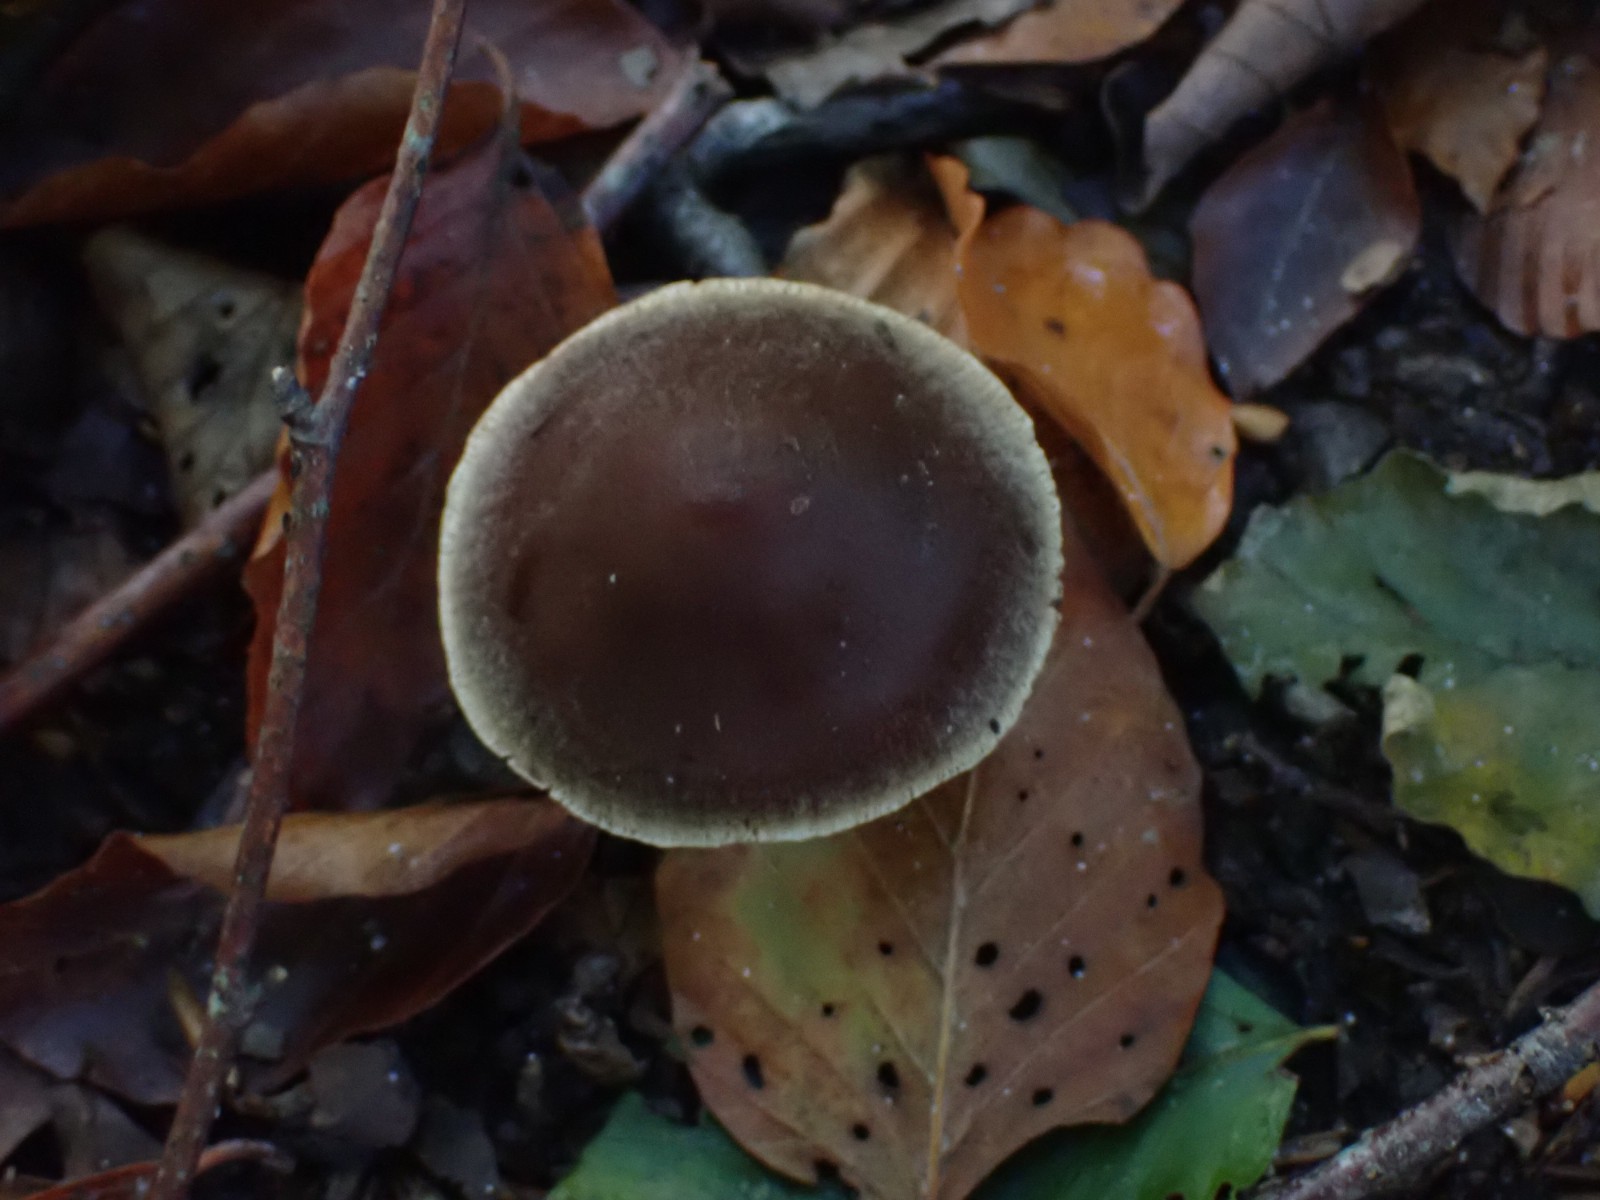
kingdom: Fungi
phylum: Basidiomycota
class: Agaricomycetes
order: Agaricales
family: Cortinariaceae
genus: Cortinarius
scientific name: Cortinarius
